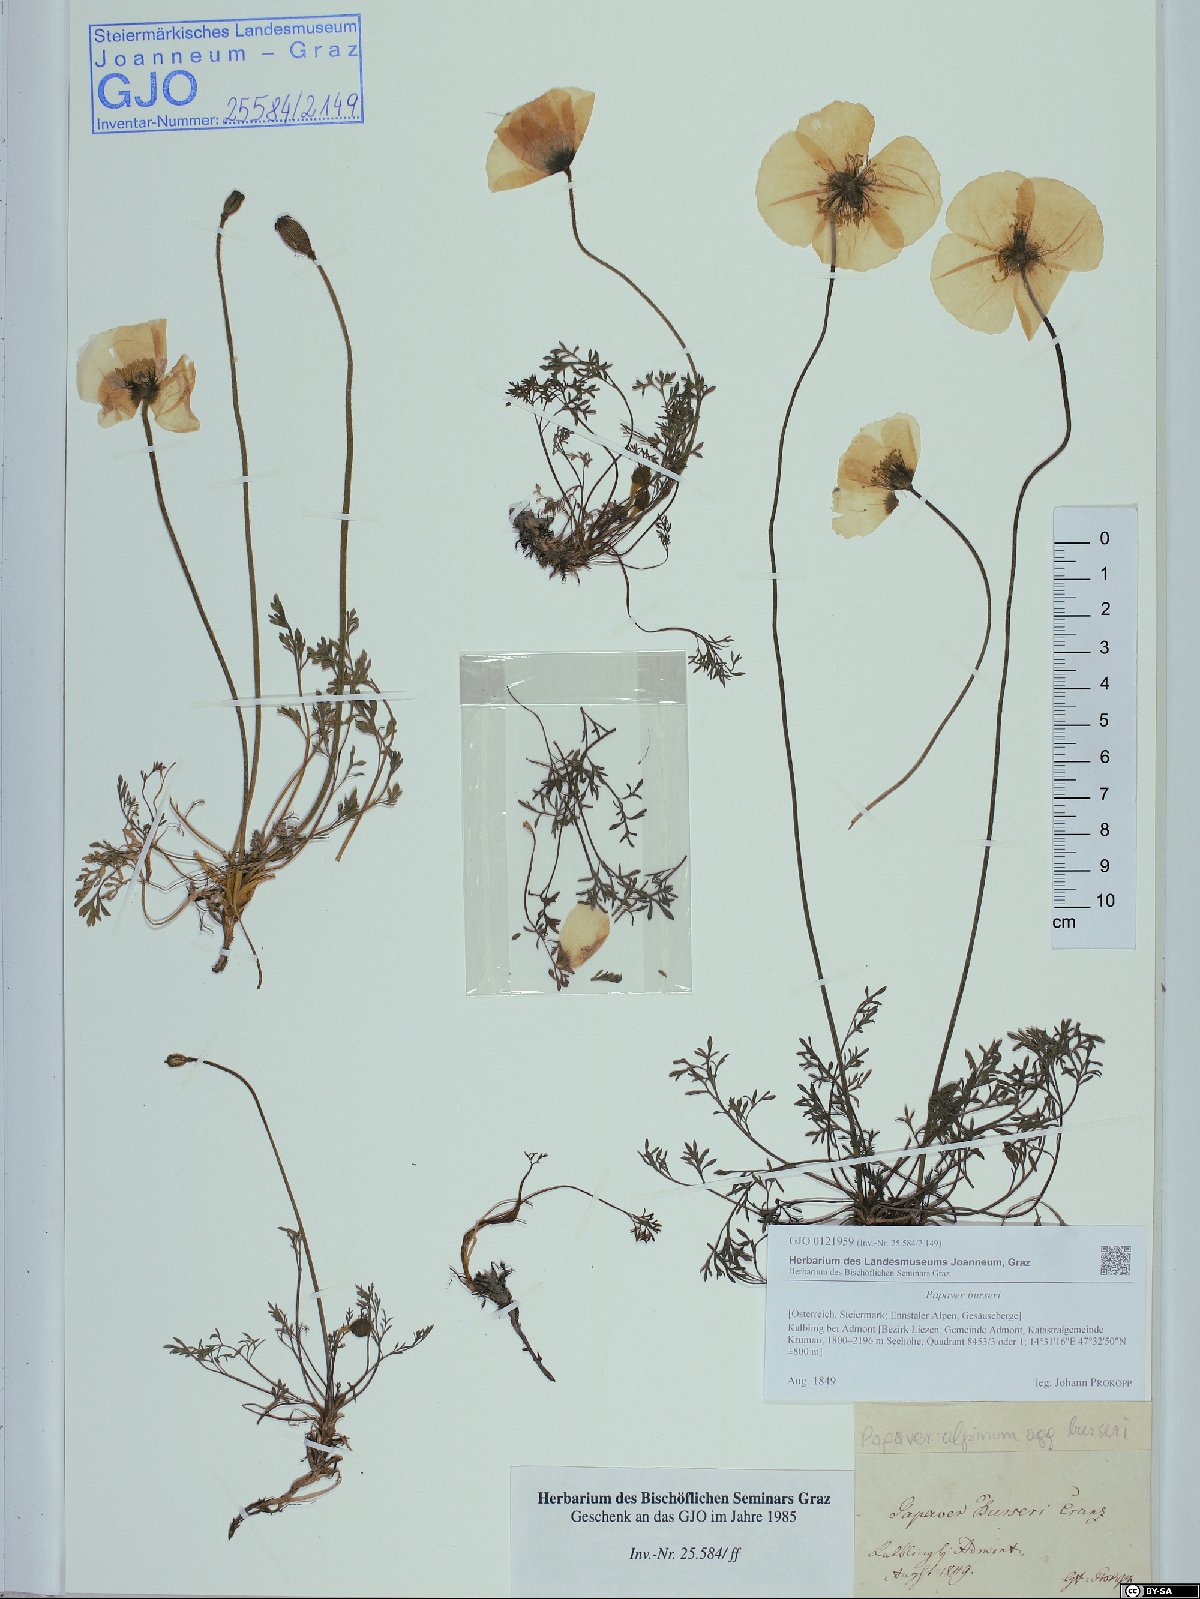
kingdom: Plantae
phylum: Tracheophyta
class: Magnoliopsida
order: Ranunculales
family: Papaveraceae
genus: Papaver
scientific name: Papaver alpinum
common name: Austrian poppy
